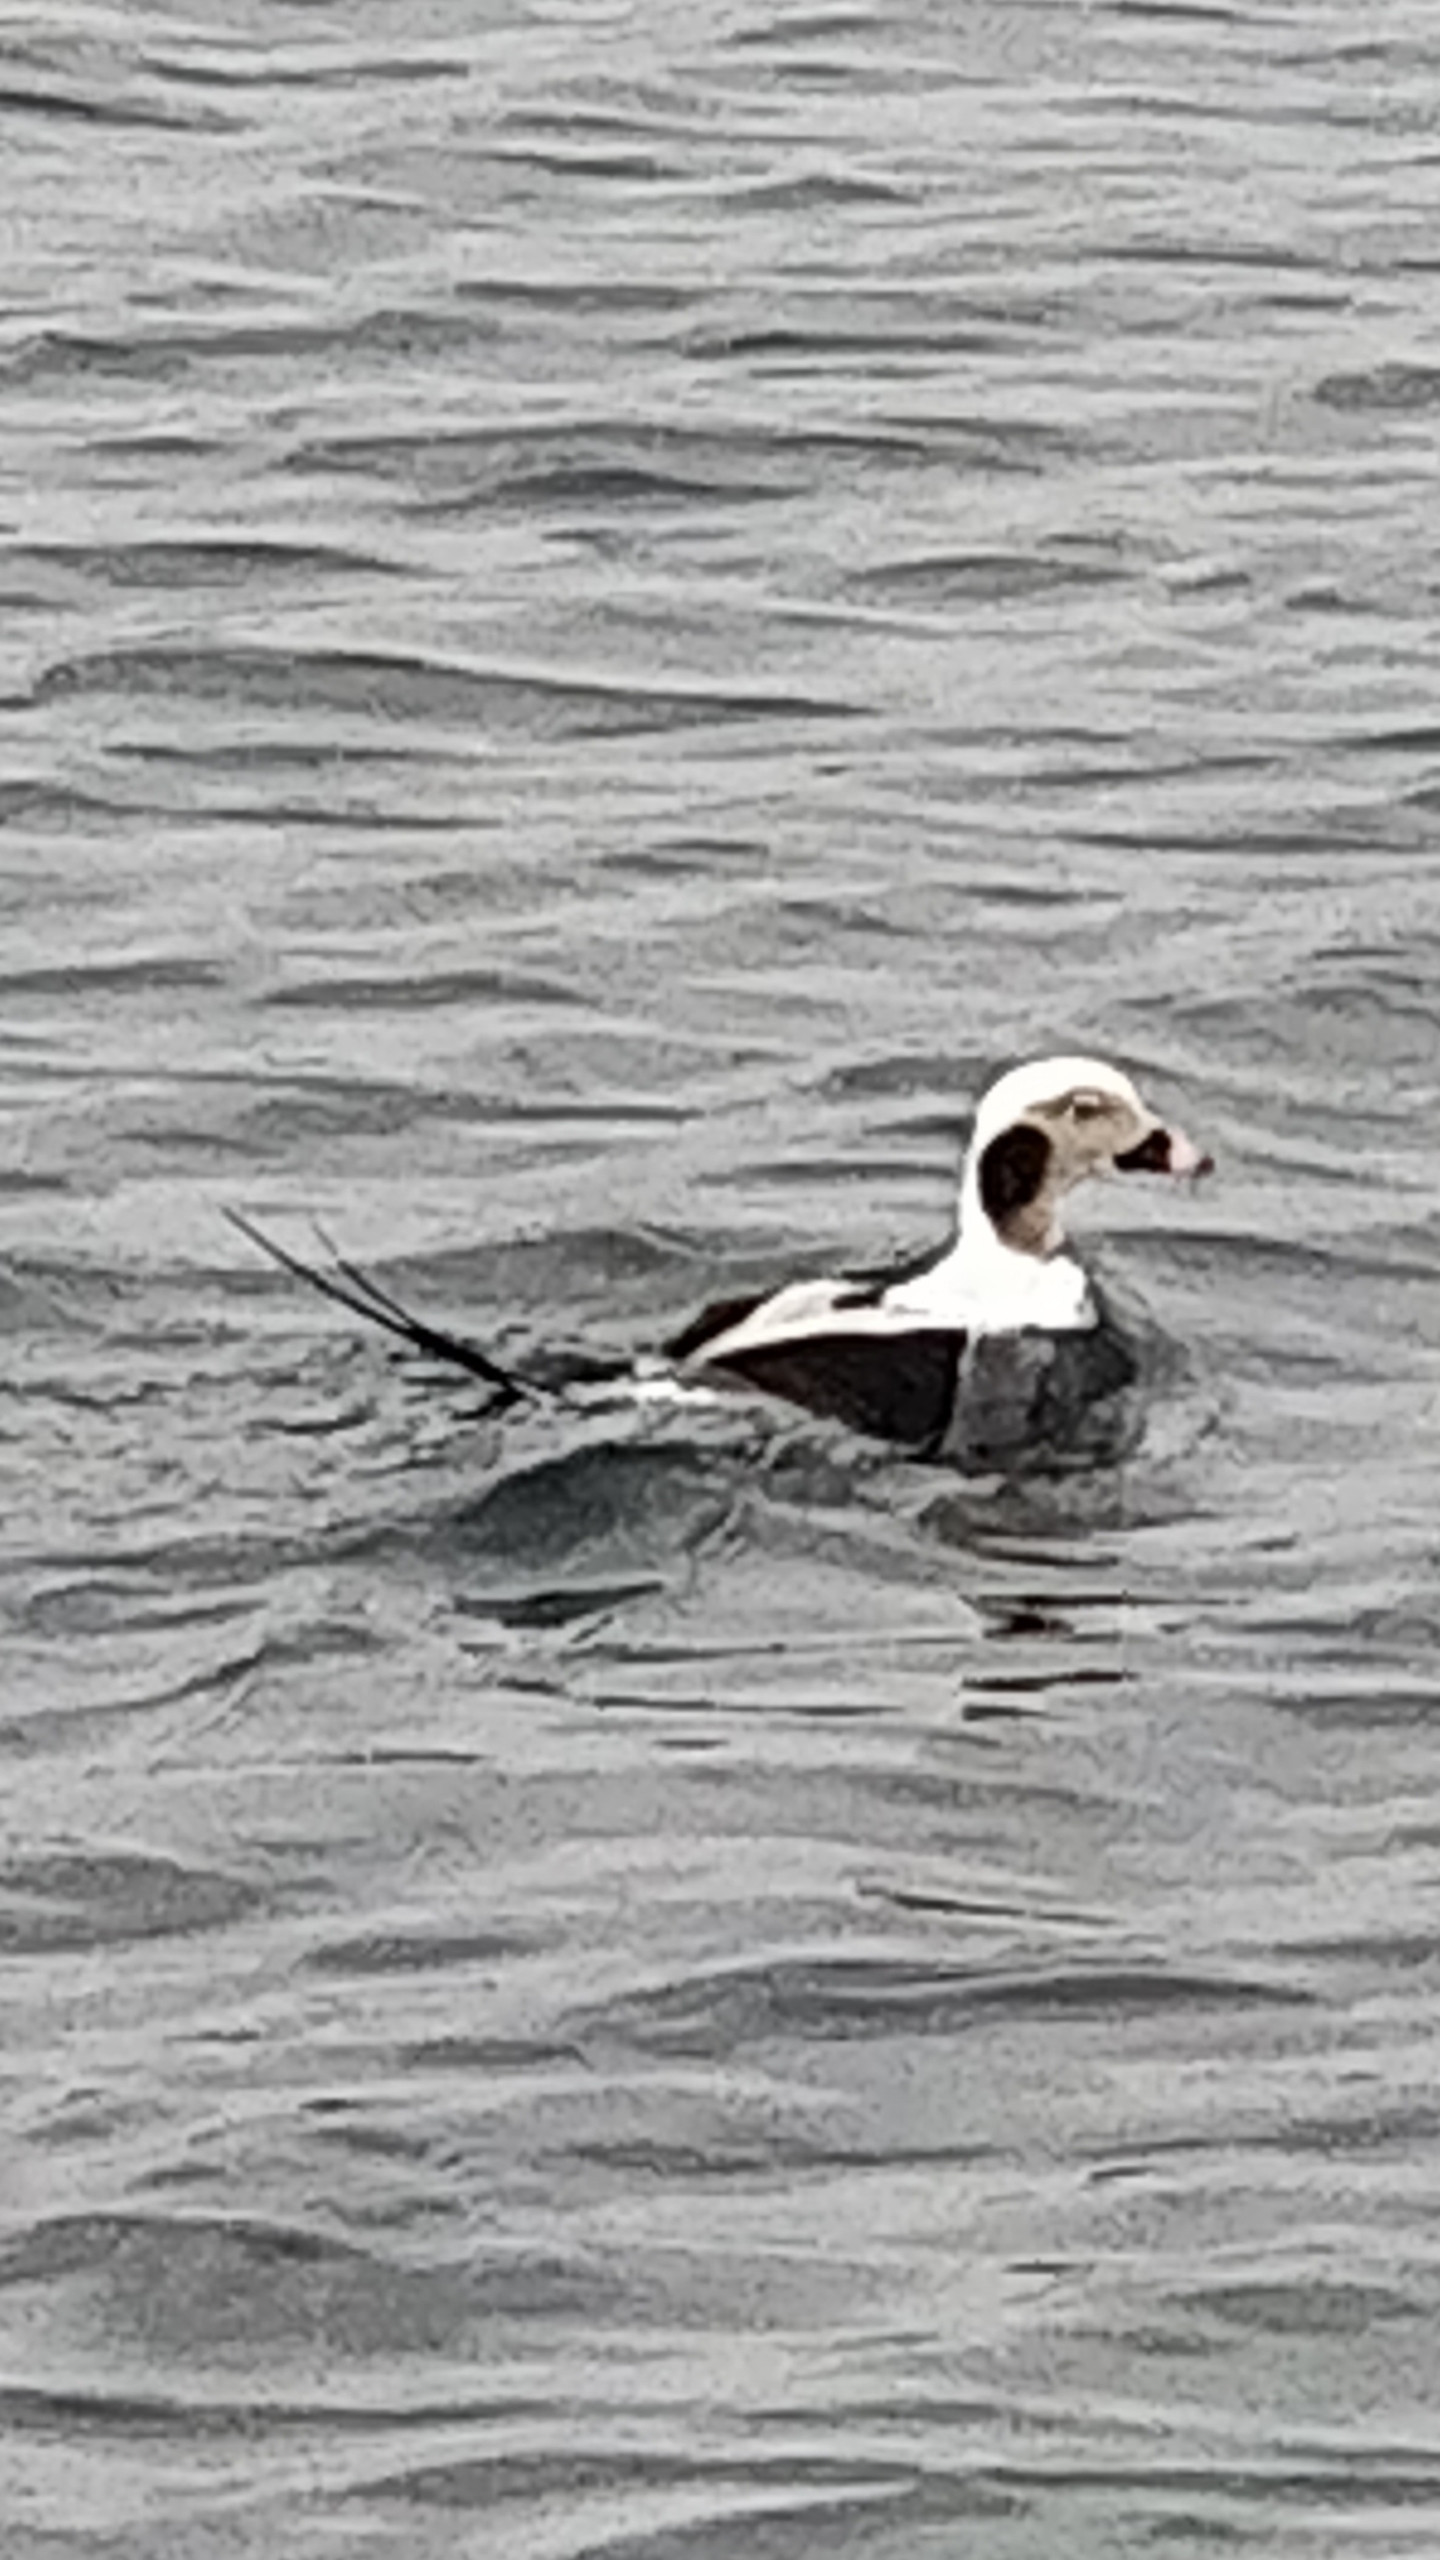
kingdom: Animalia
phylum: Chordata
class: Aves
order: Anseriformes
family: Anatidae
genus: Clangula
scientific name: Clangula hyemalis
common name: Havlit
